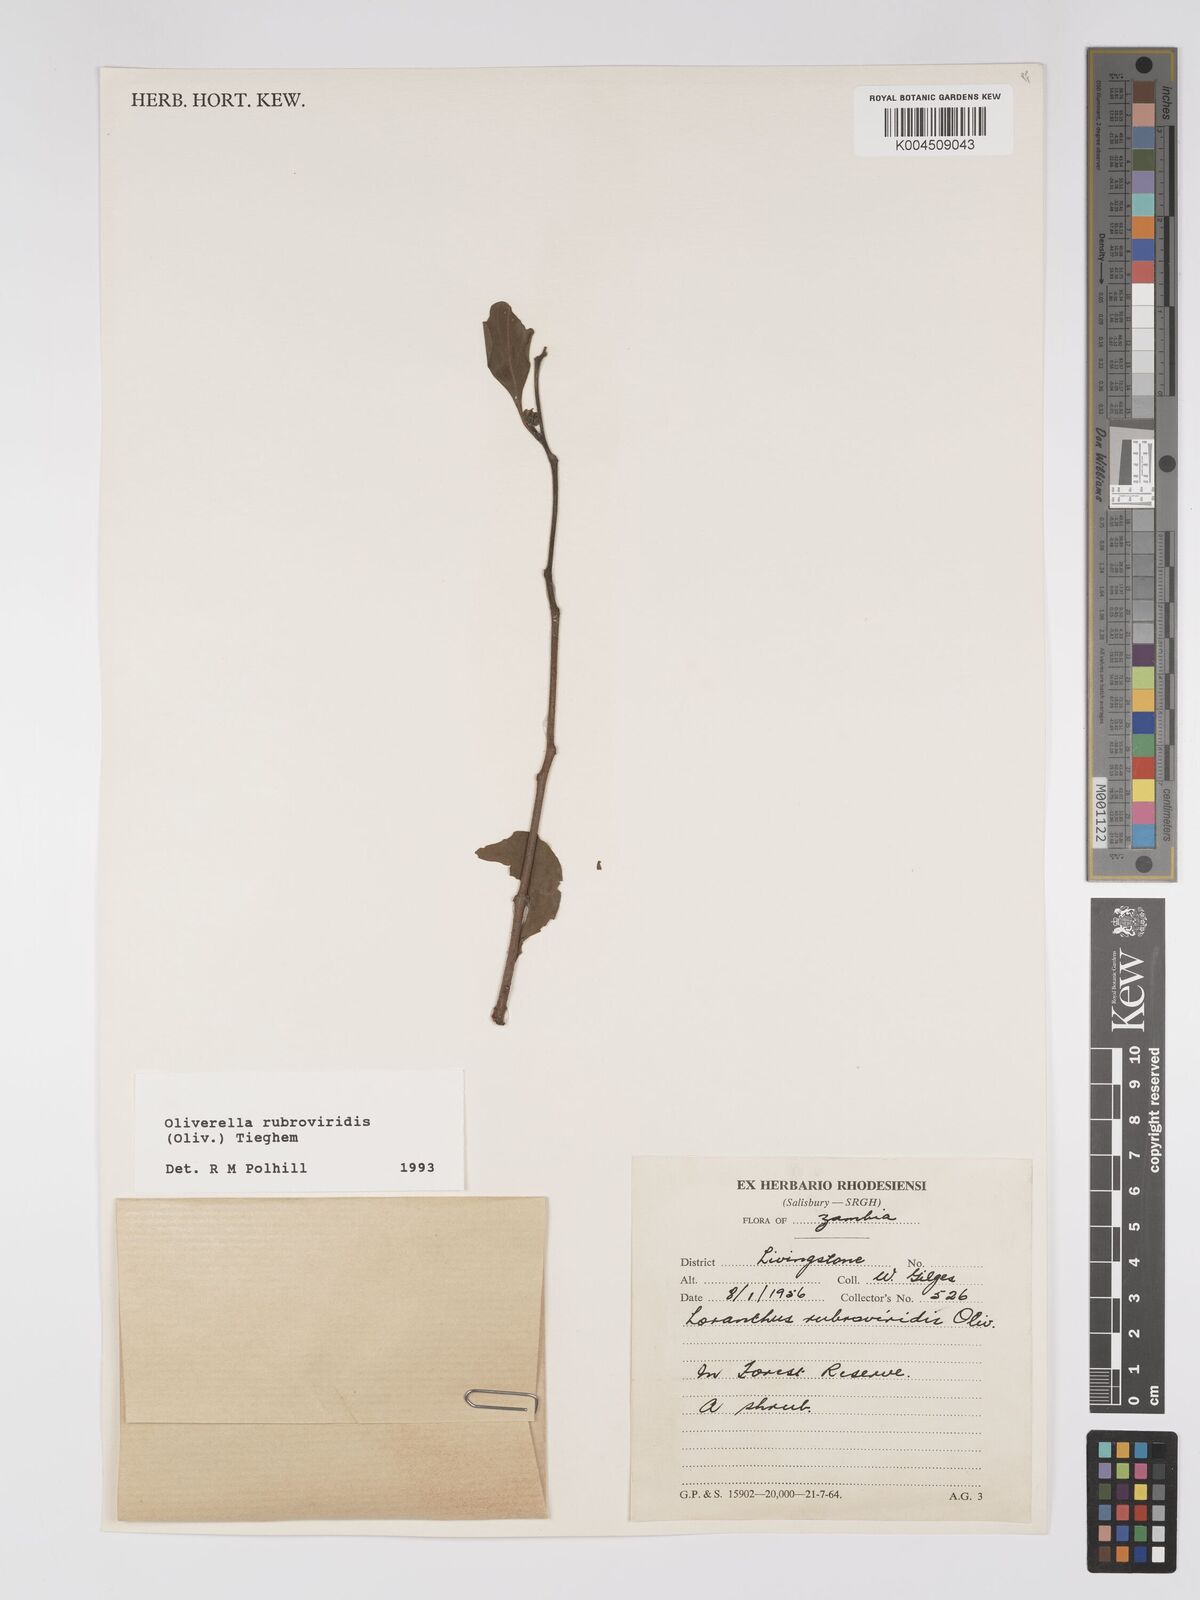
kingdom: Plantae
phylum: Tracheophyta
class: Magnoliopsida
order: Santalales
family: Loranthaceae
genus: Oliverella
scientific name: Oliverella rubroviridis
